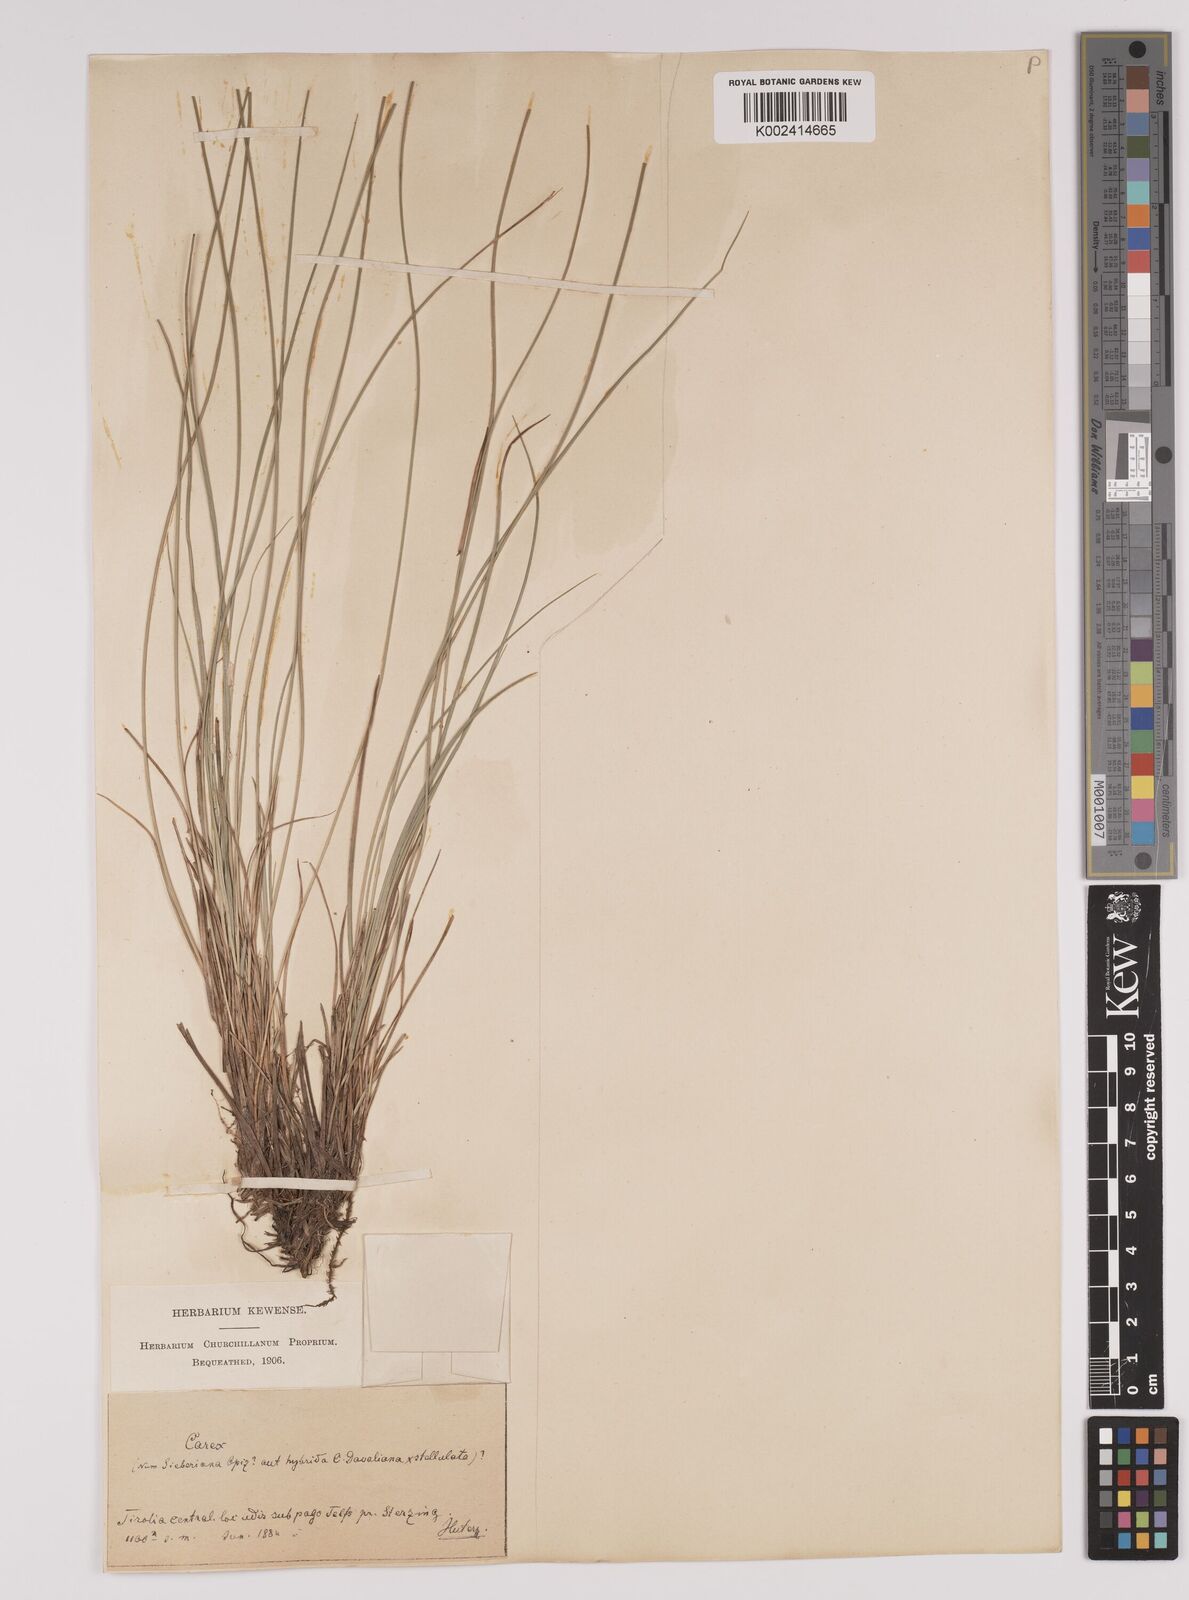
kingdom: Plantae
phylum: Tracheophyta
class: Liliopsida
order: Poales
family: Cyperaceae
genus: Carex
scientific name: Carex davalliana
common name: Davall's sedge
